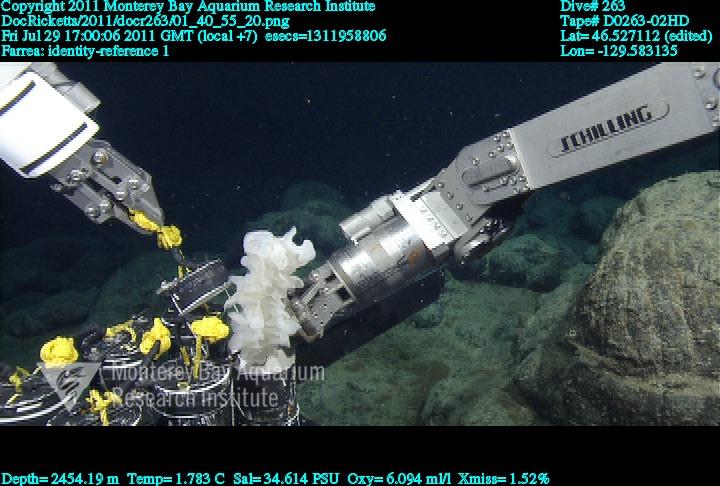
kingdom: Animalia
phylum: Porifera
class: Hexactinellida
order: Sceptrulophora
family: Farreidae
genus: Farrea
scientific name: Farrea
